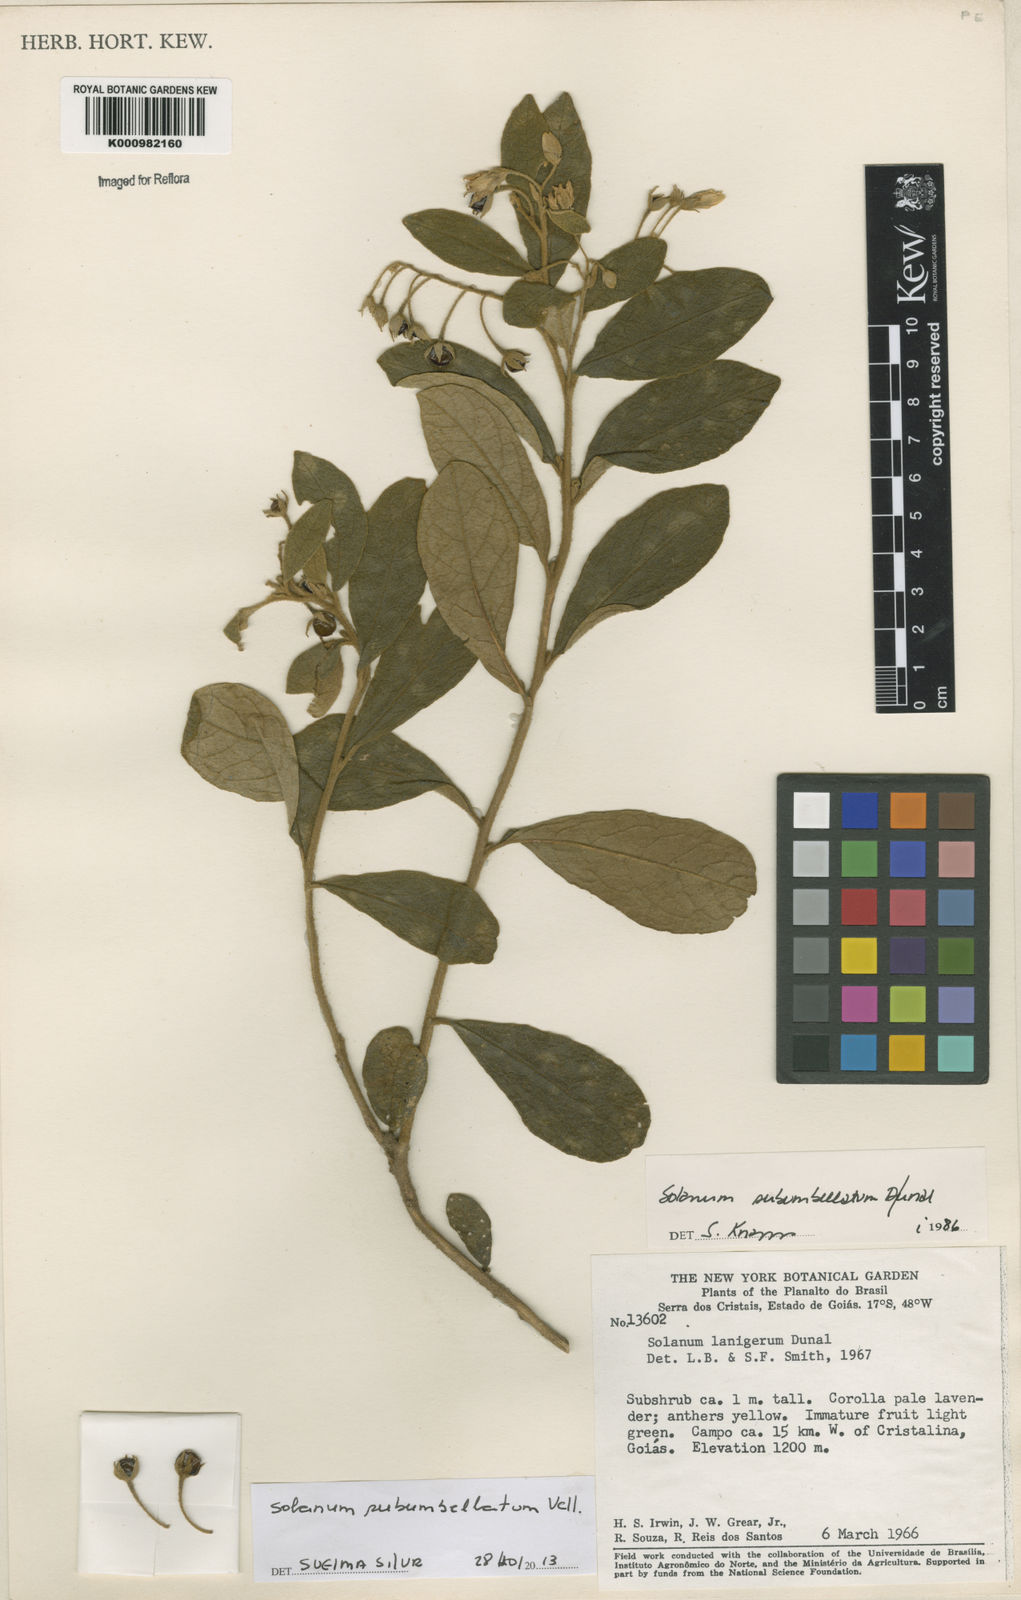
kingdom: Plantae
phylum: Tracheophyta
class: Magnoliopsida
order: Solanales
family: Solanaceae
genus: Solanum
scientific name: Solanum subumbellatum
